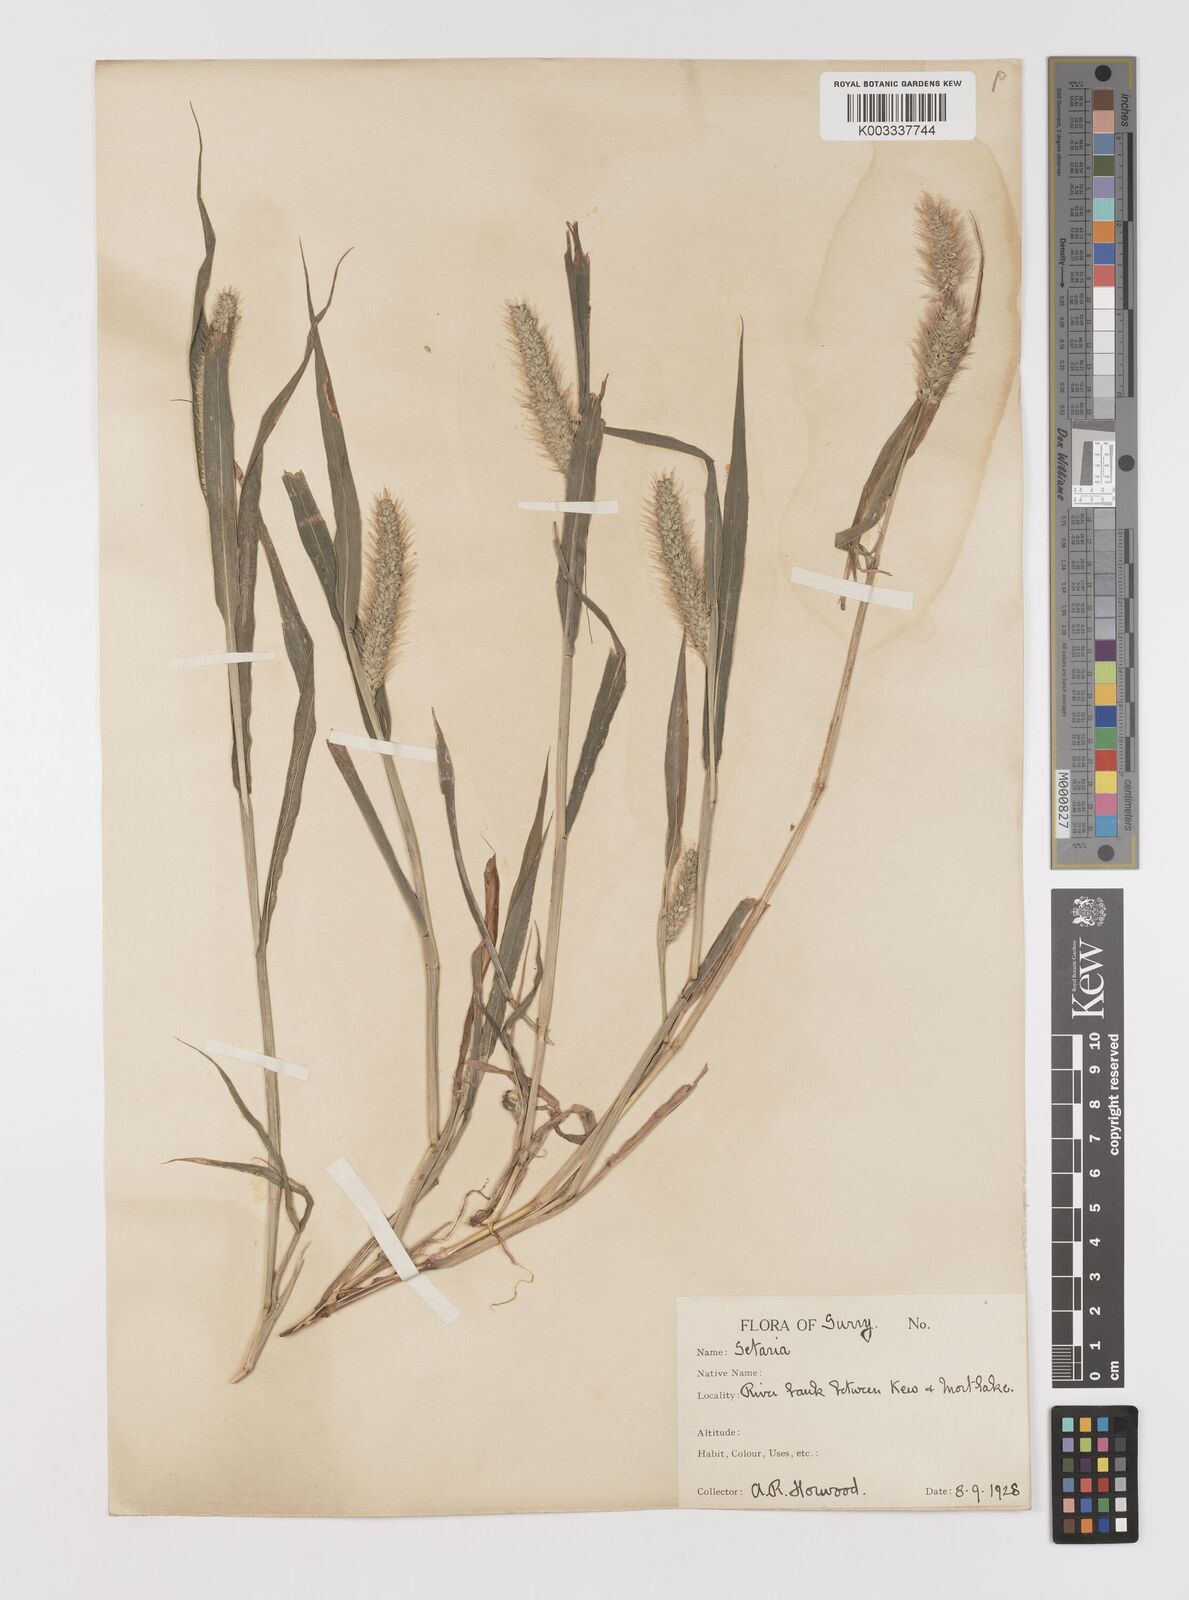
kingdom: Plantae
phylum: Tracheophyta
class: Liliopsida
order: Poales
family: Poaceae
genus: Setaria
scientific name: Setaria viridis
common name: Green bristlegrass
